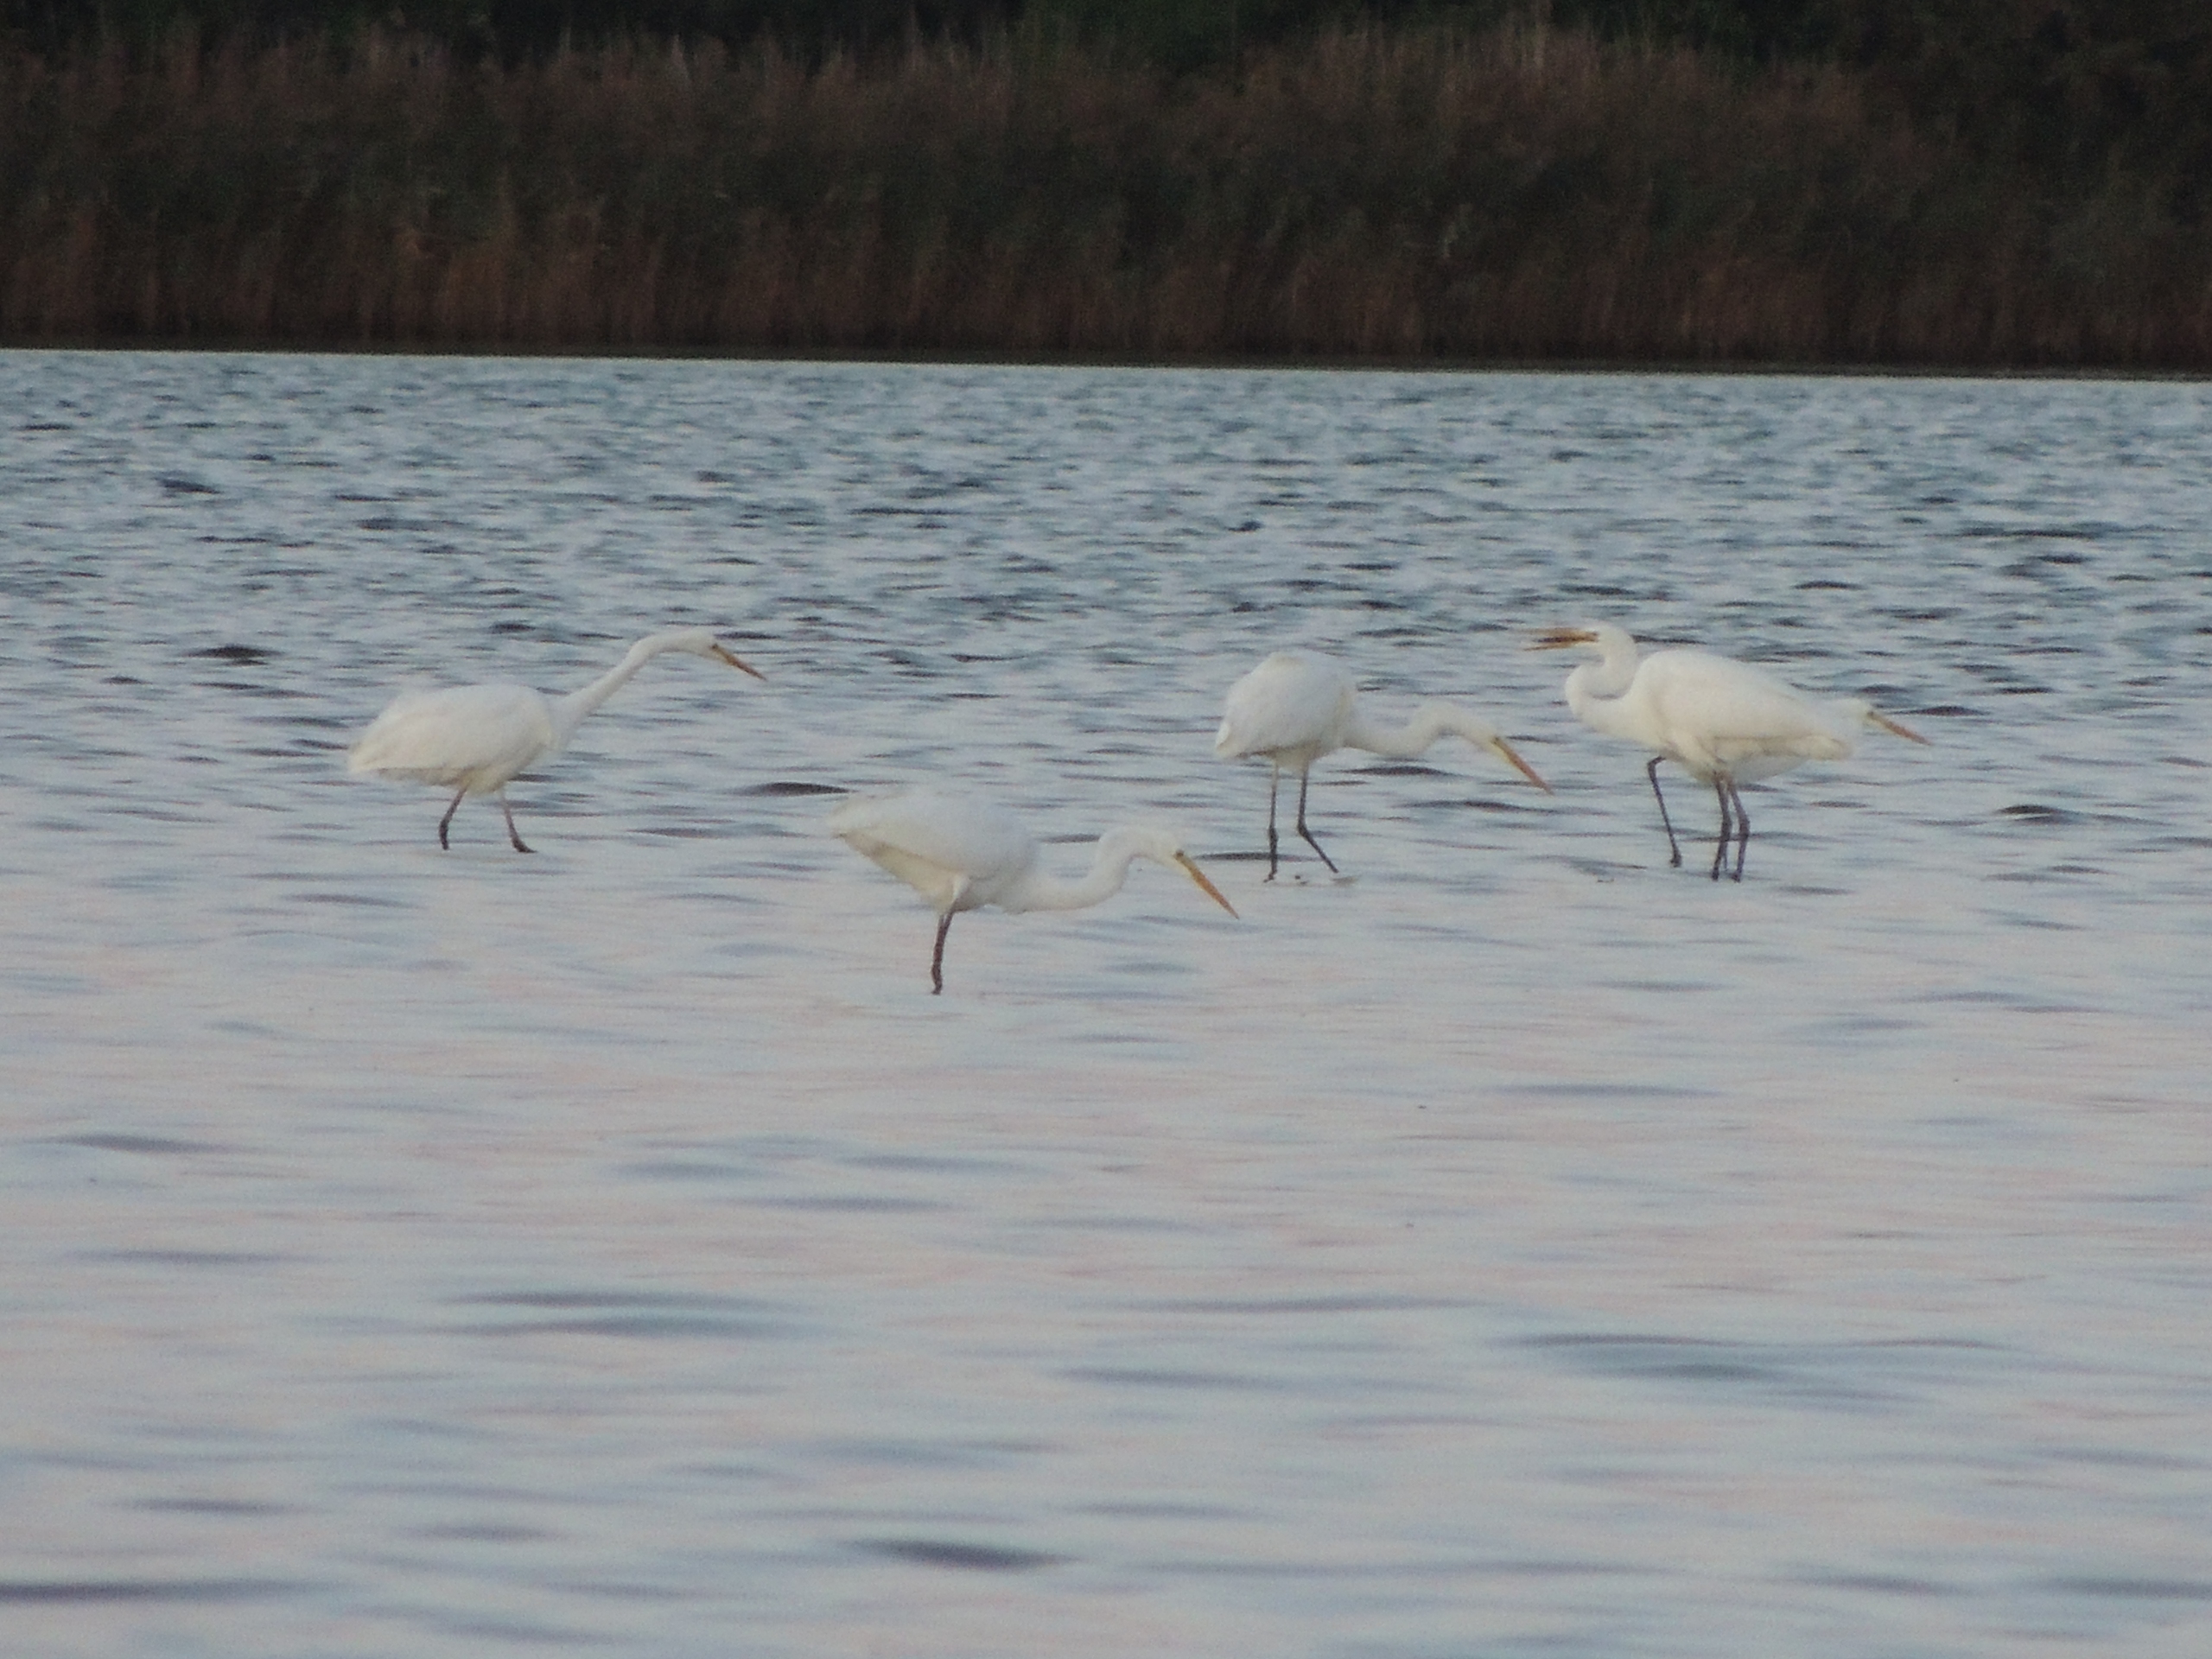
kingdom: Animalia
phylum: Chordata
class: Aves
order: Pelecaniformes
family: Ardeidae
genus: Ardea
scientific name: Ardea alba
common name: Sølvhejre
